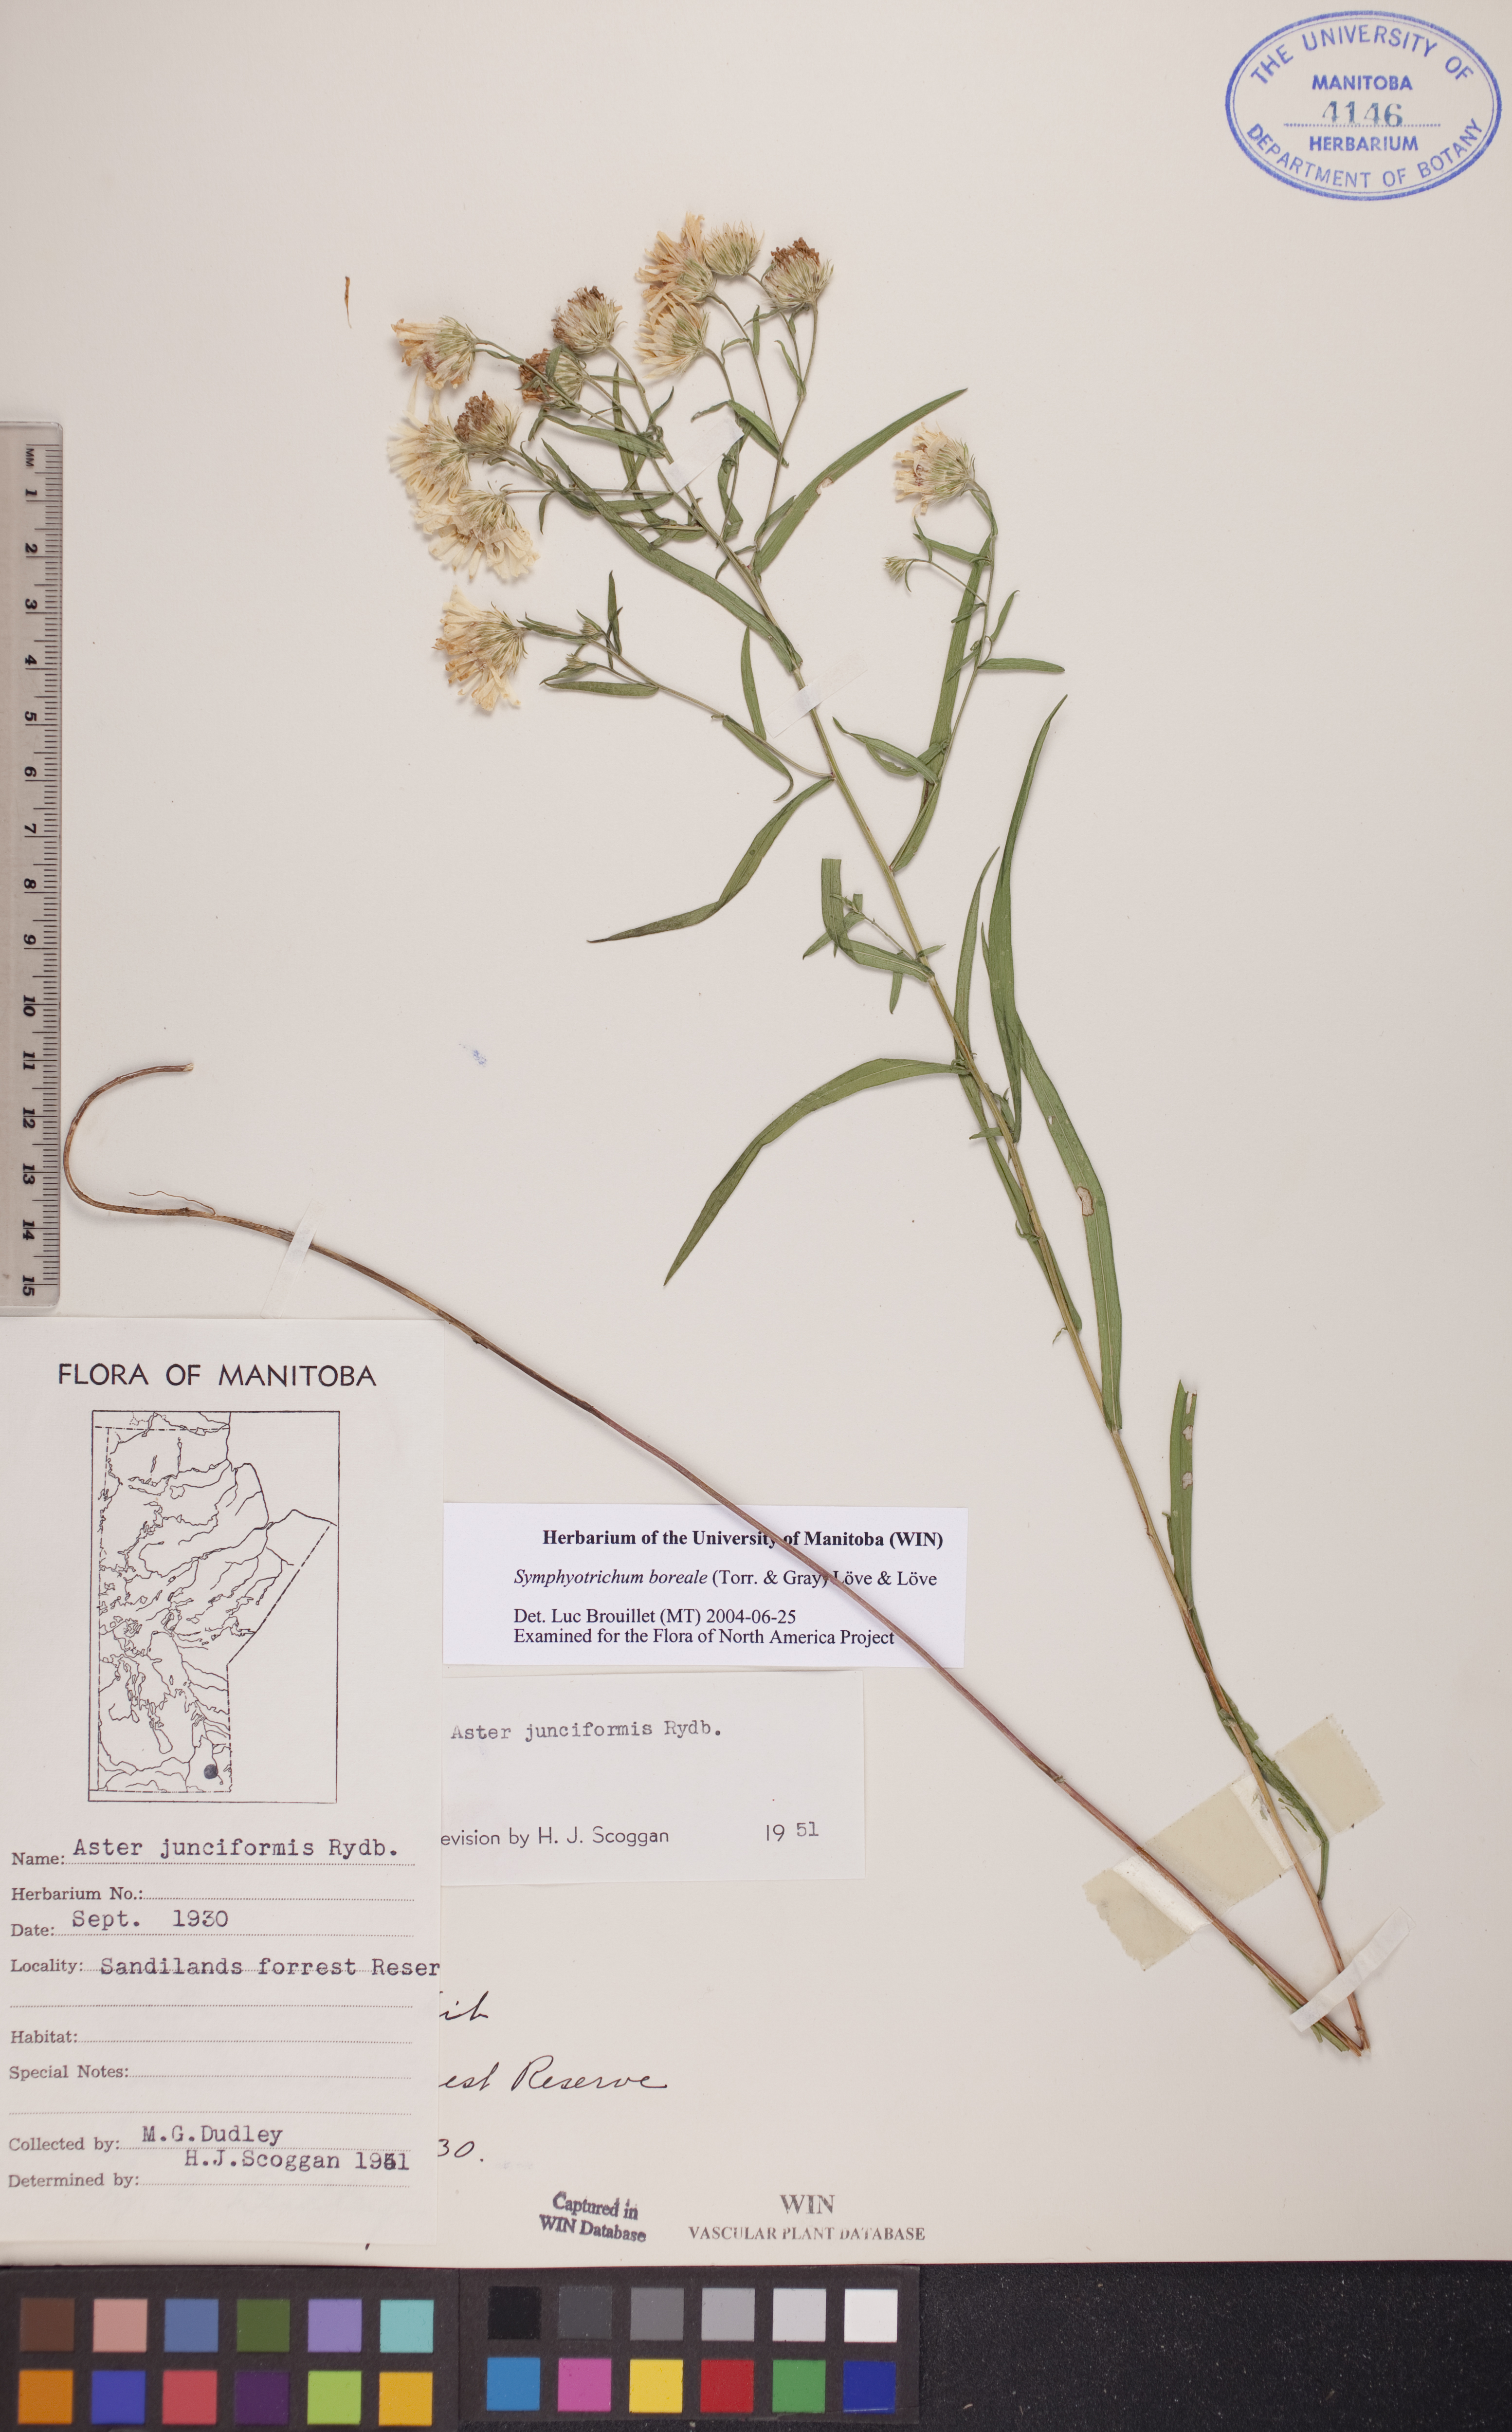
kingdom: Plantae
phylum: Tracheophyta
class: Magnoliopsida
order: Asterales
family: Asteraceae
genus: Symphyotrichum
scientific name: Symphyotrichum boreale
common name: Northern bog aster
